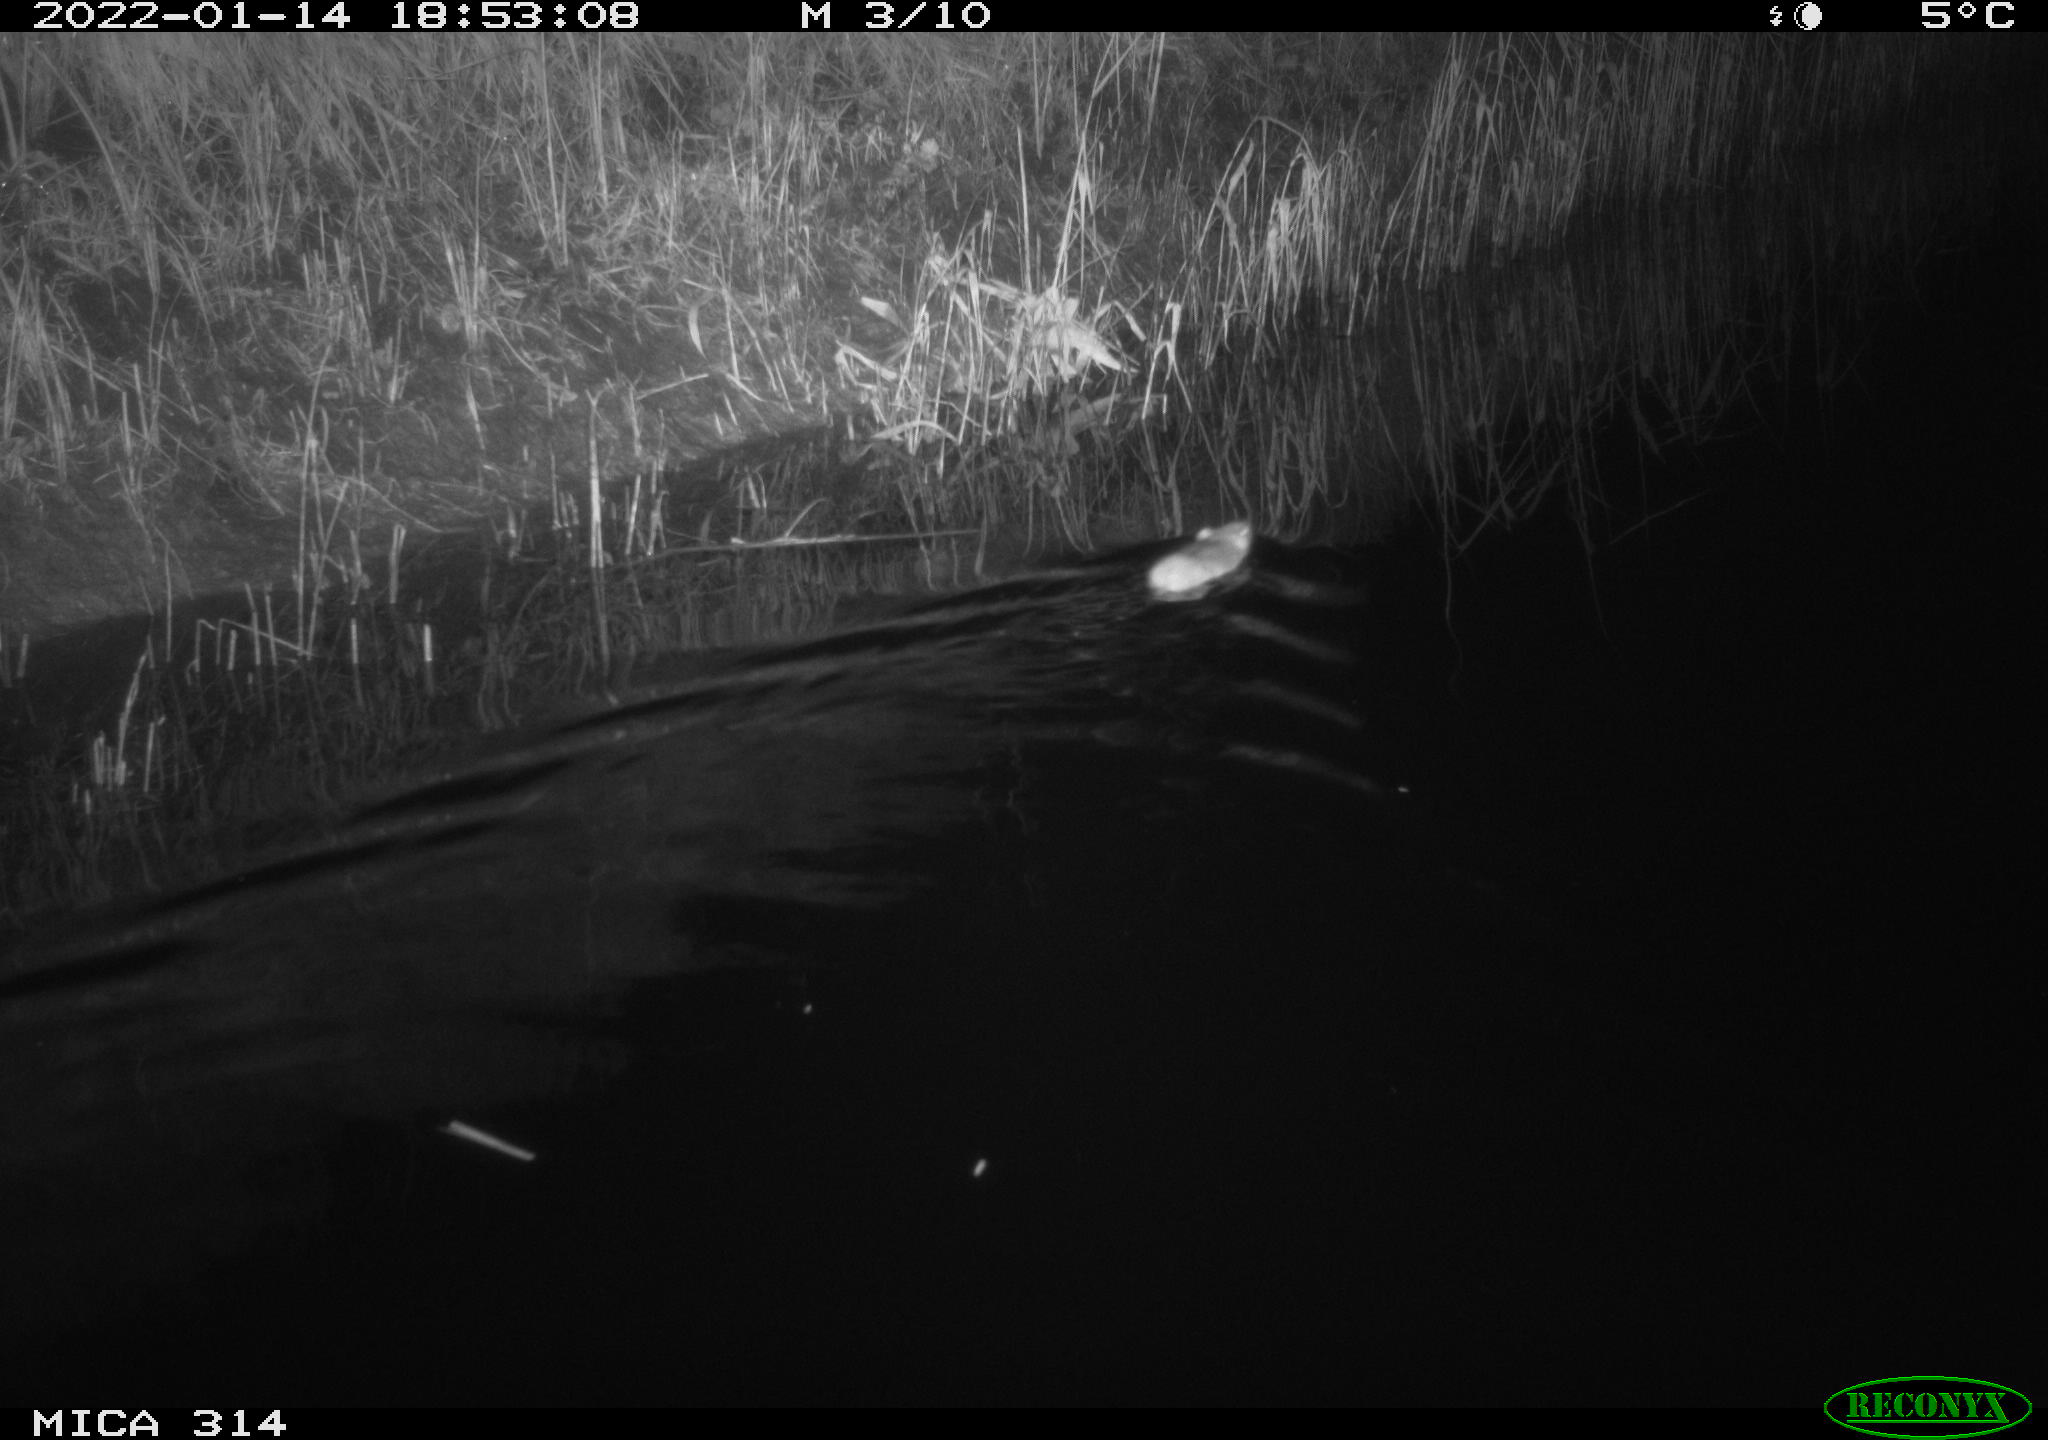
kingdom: Animalia
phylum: Chordata
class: Mammalia
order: Rodentia
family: Muridae
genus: Rattus
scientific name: Rattus norvegicus
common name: Brown rat
